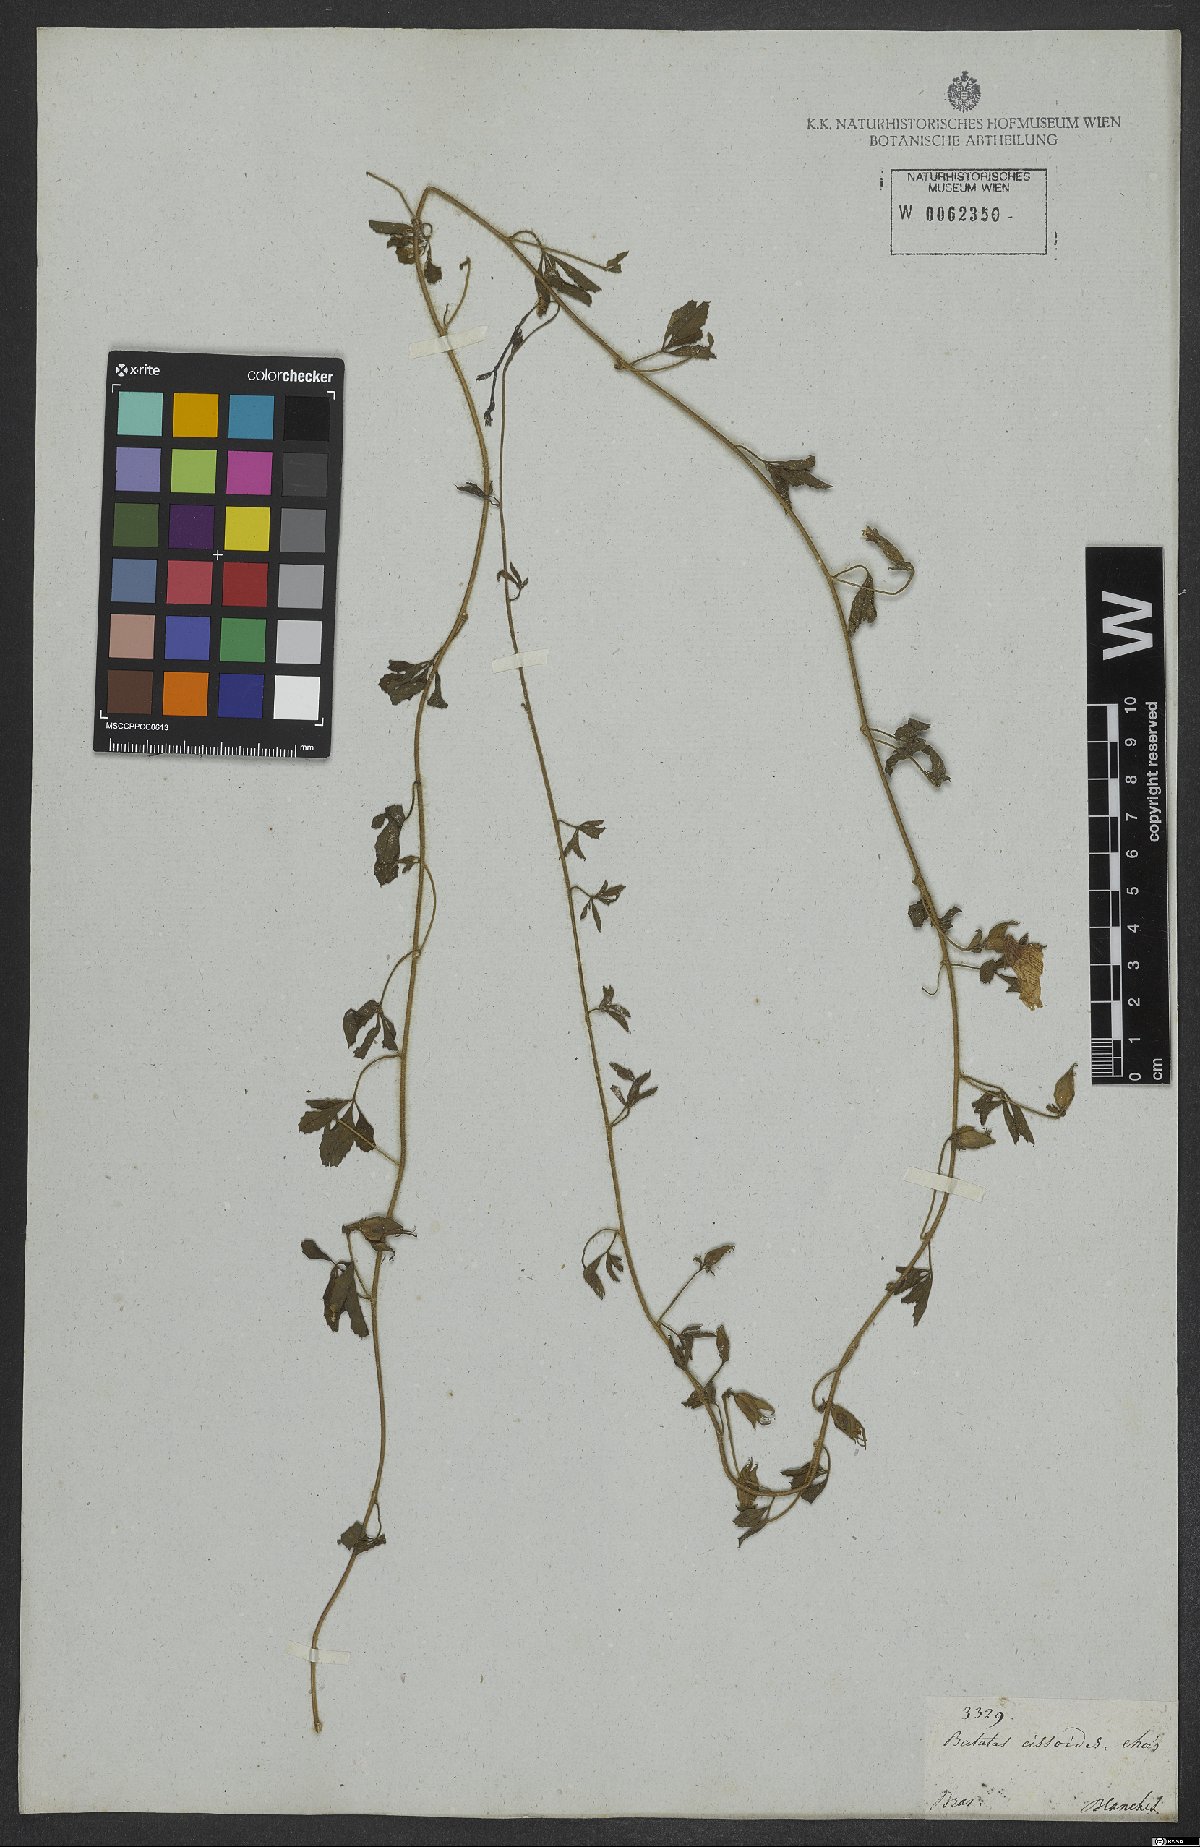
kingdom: Plantae
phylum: Tracheophyta
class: Magnoliopsida
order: Solanales
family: Convolvulaceae
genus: Distimake
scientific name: Distimake cissoides
